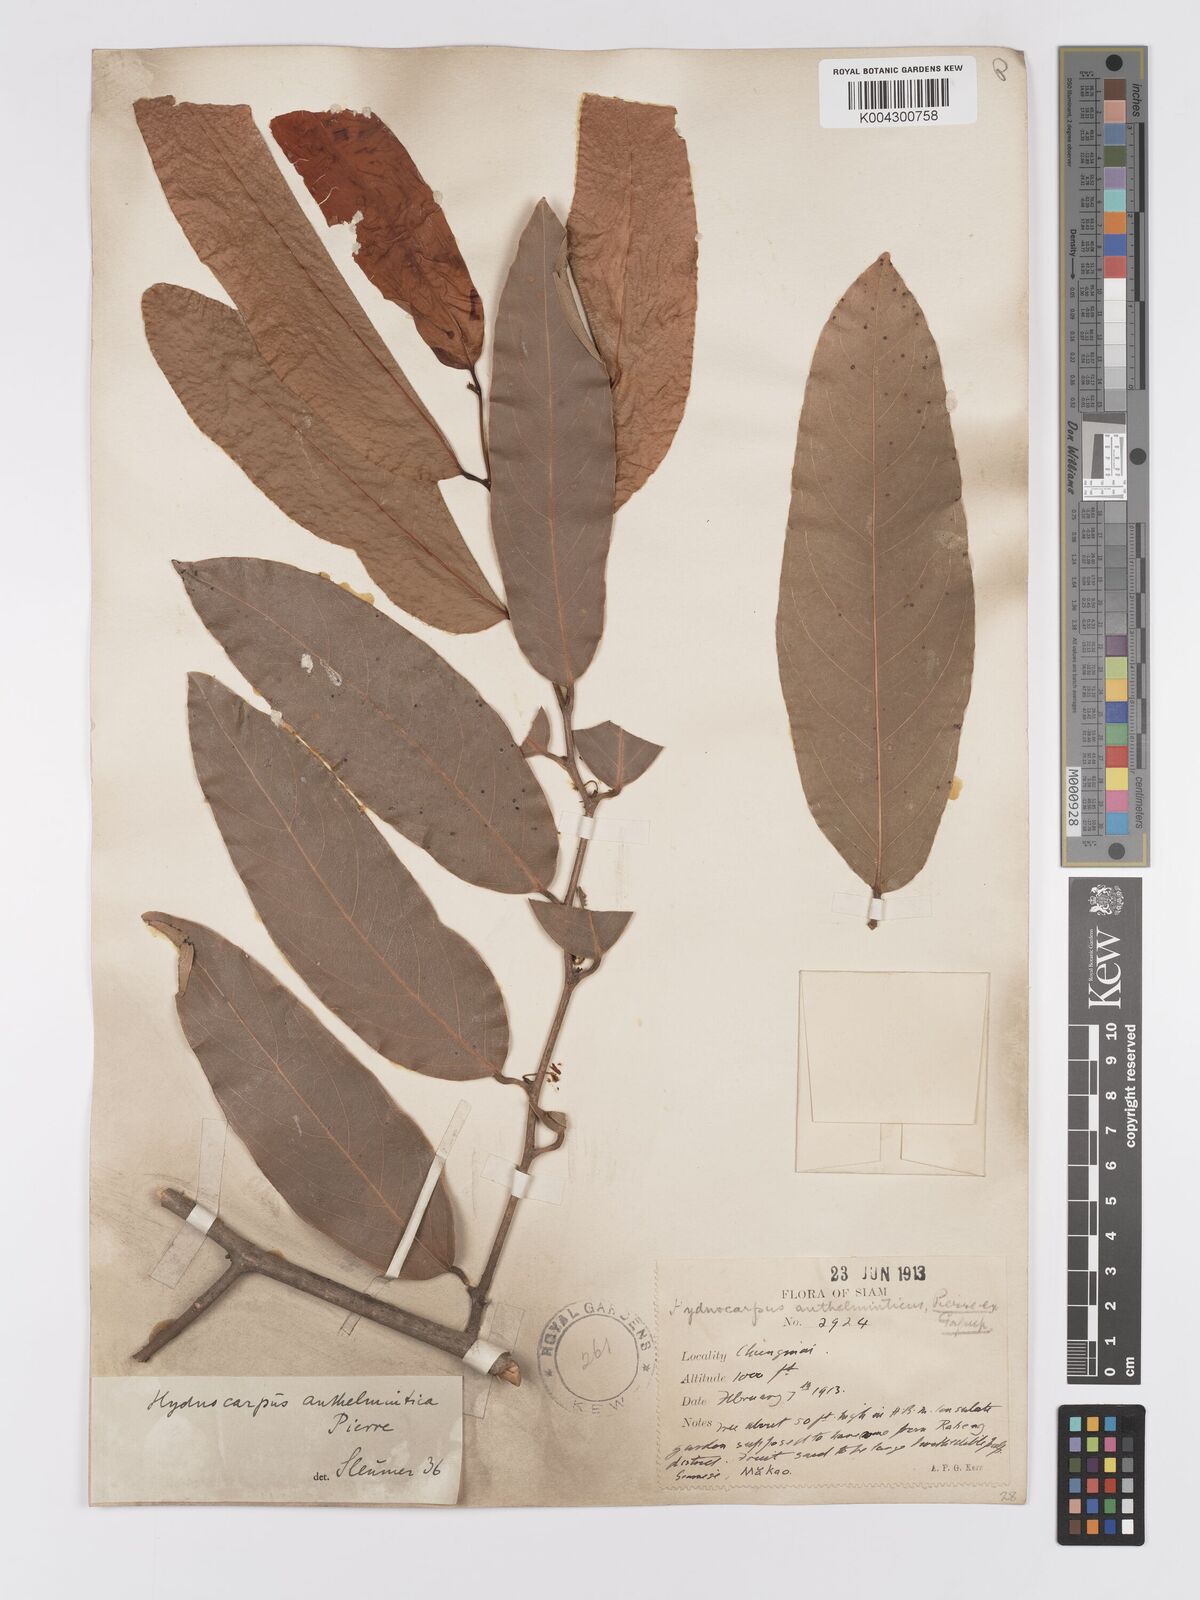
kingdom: Plantae
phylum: Tracheophyta
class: Magnoliopsida
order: Malpighiales
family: Achariaceae
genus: Hydnocarpus
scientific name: Hydnocarpus castaneus
